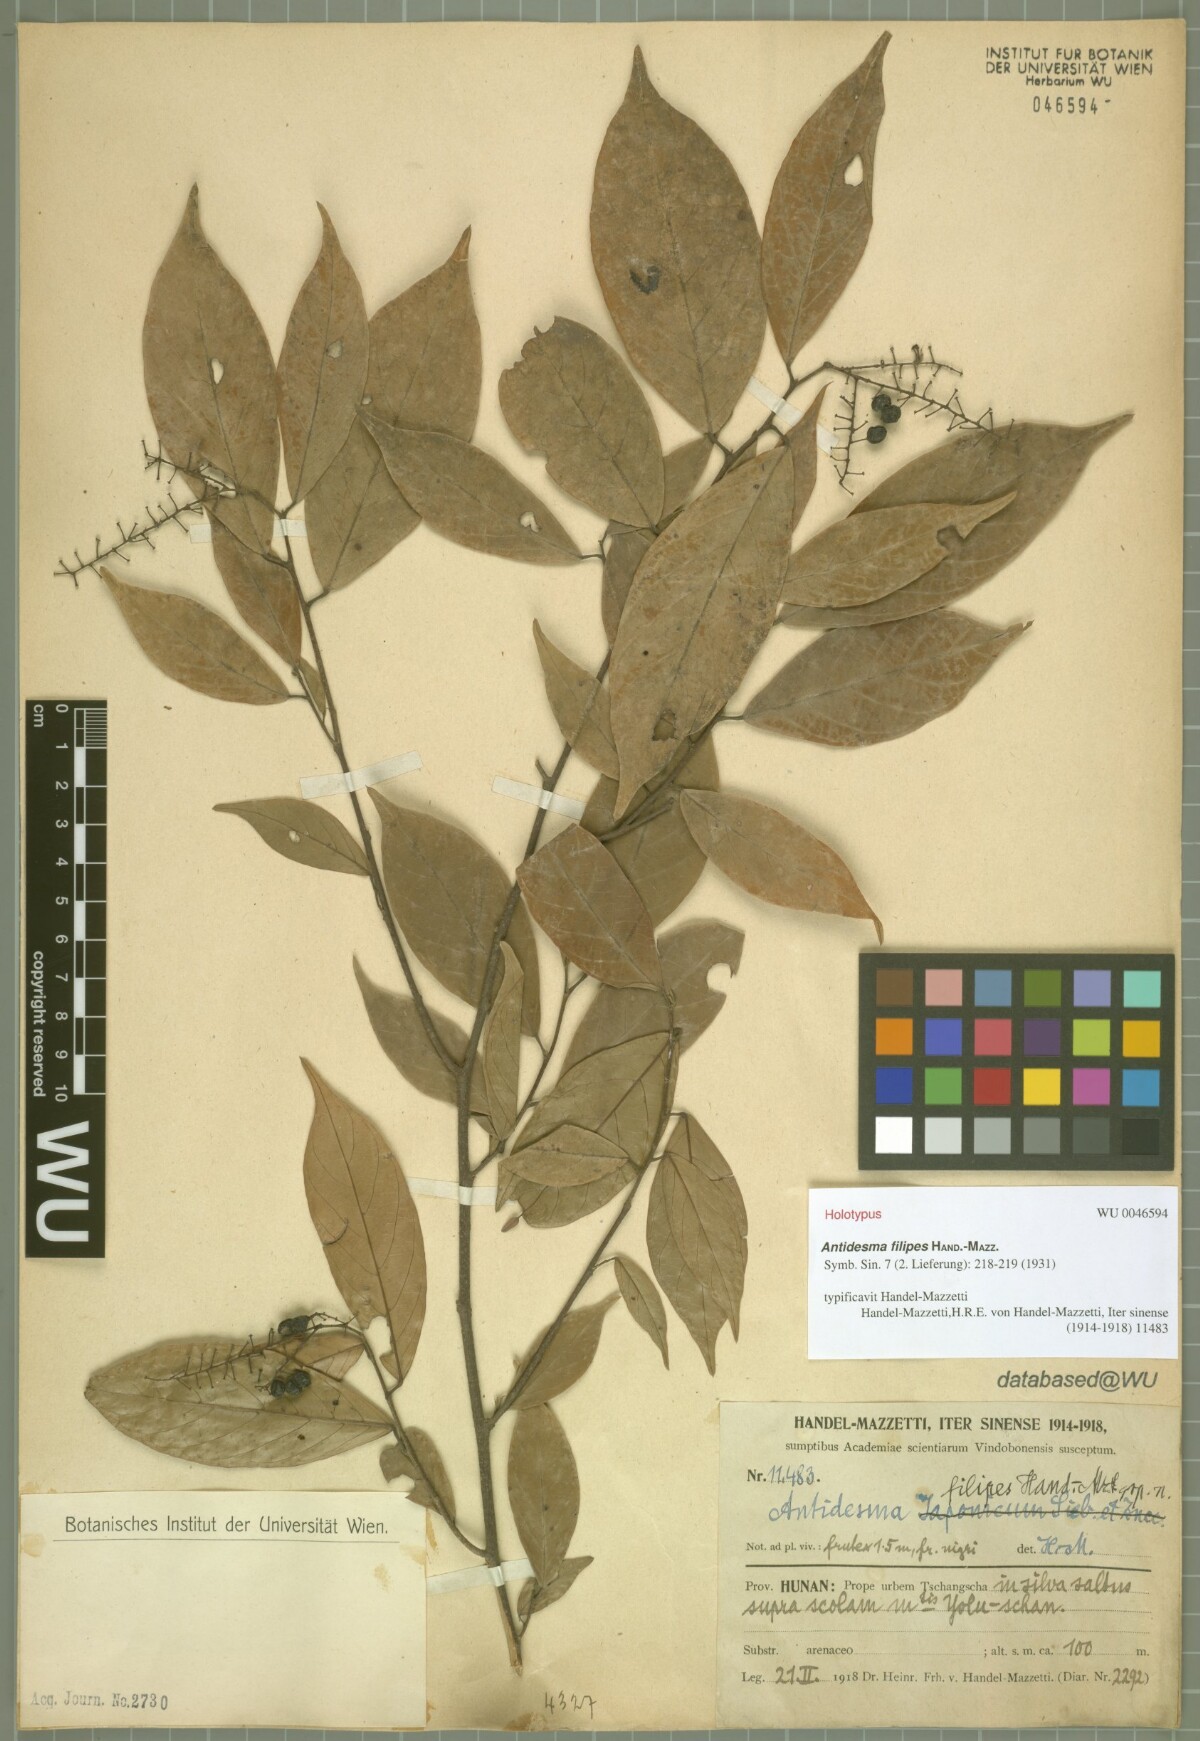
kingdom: Plantae
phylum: Tracheophyta
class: Magnoliopsida
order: Malpighiales
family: Phyllanthaceae
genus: Antidesma
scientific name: Antidesma japonicum
